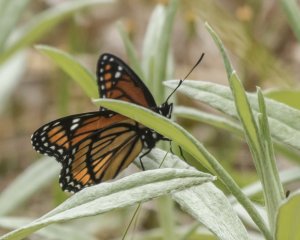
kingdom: Animalia
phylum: Arthropoda
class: Insecta
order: Lepidoptera
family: Nymphalidae
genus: Limenitis
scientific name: Limenitis archippus
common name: Viceroy
